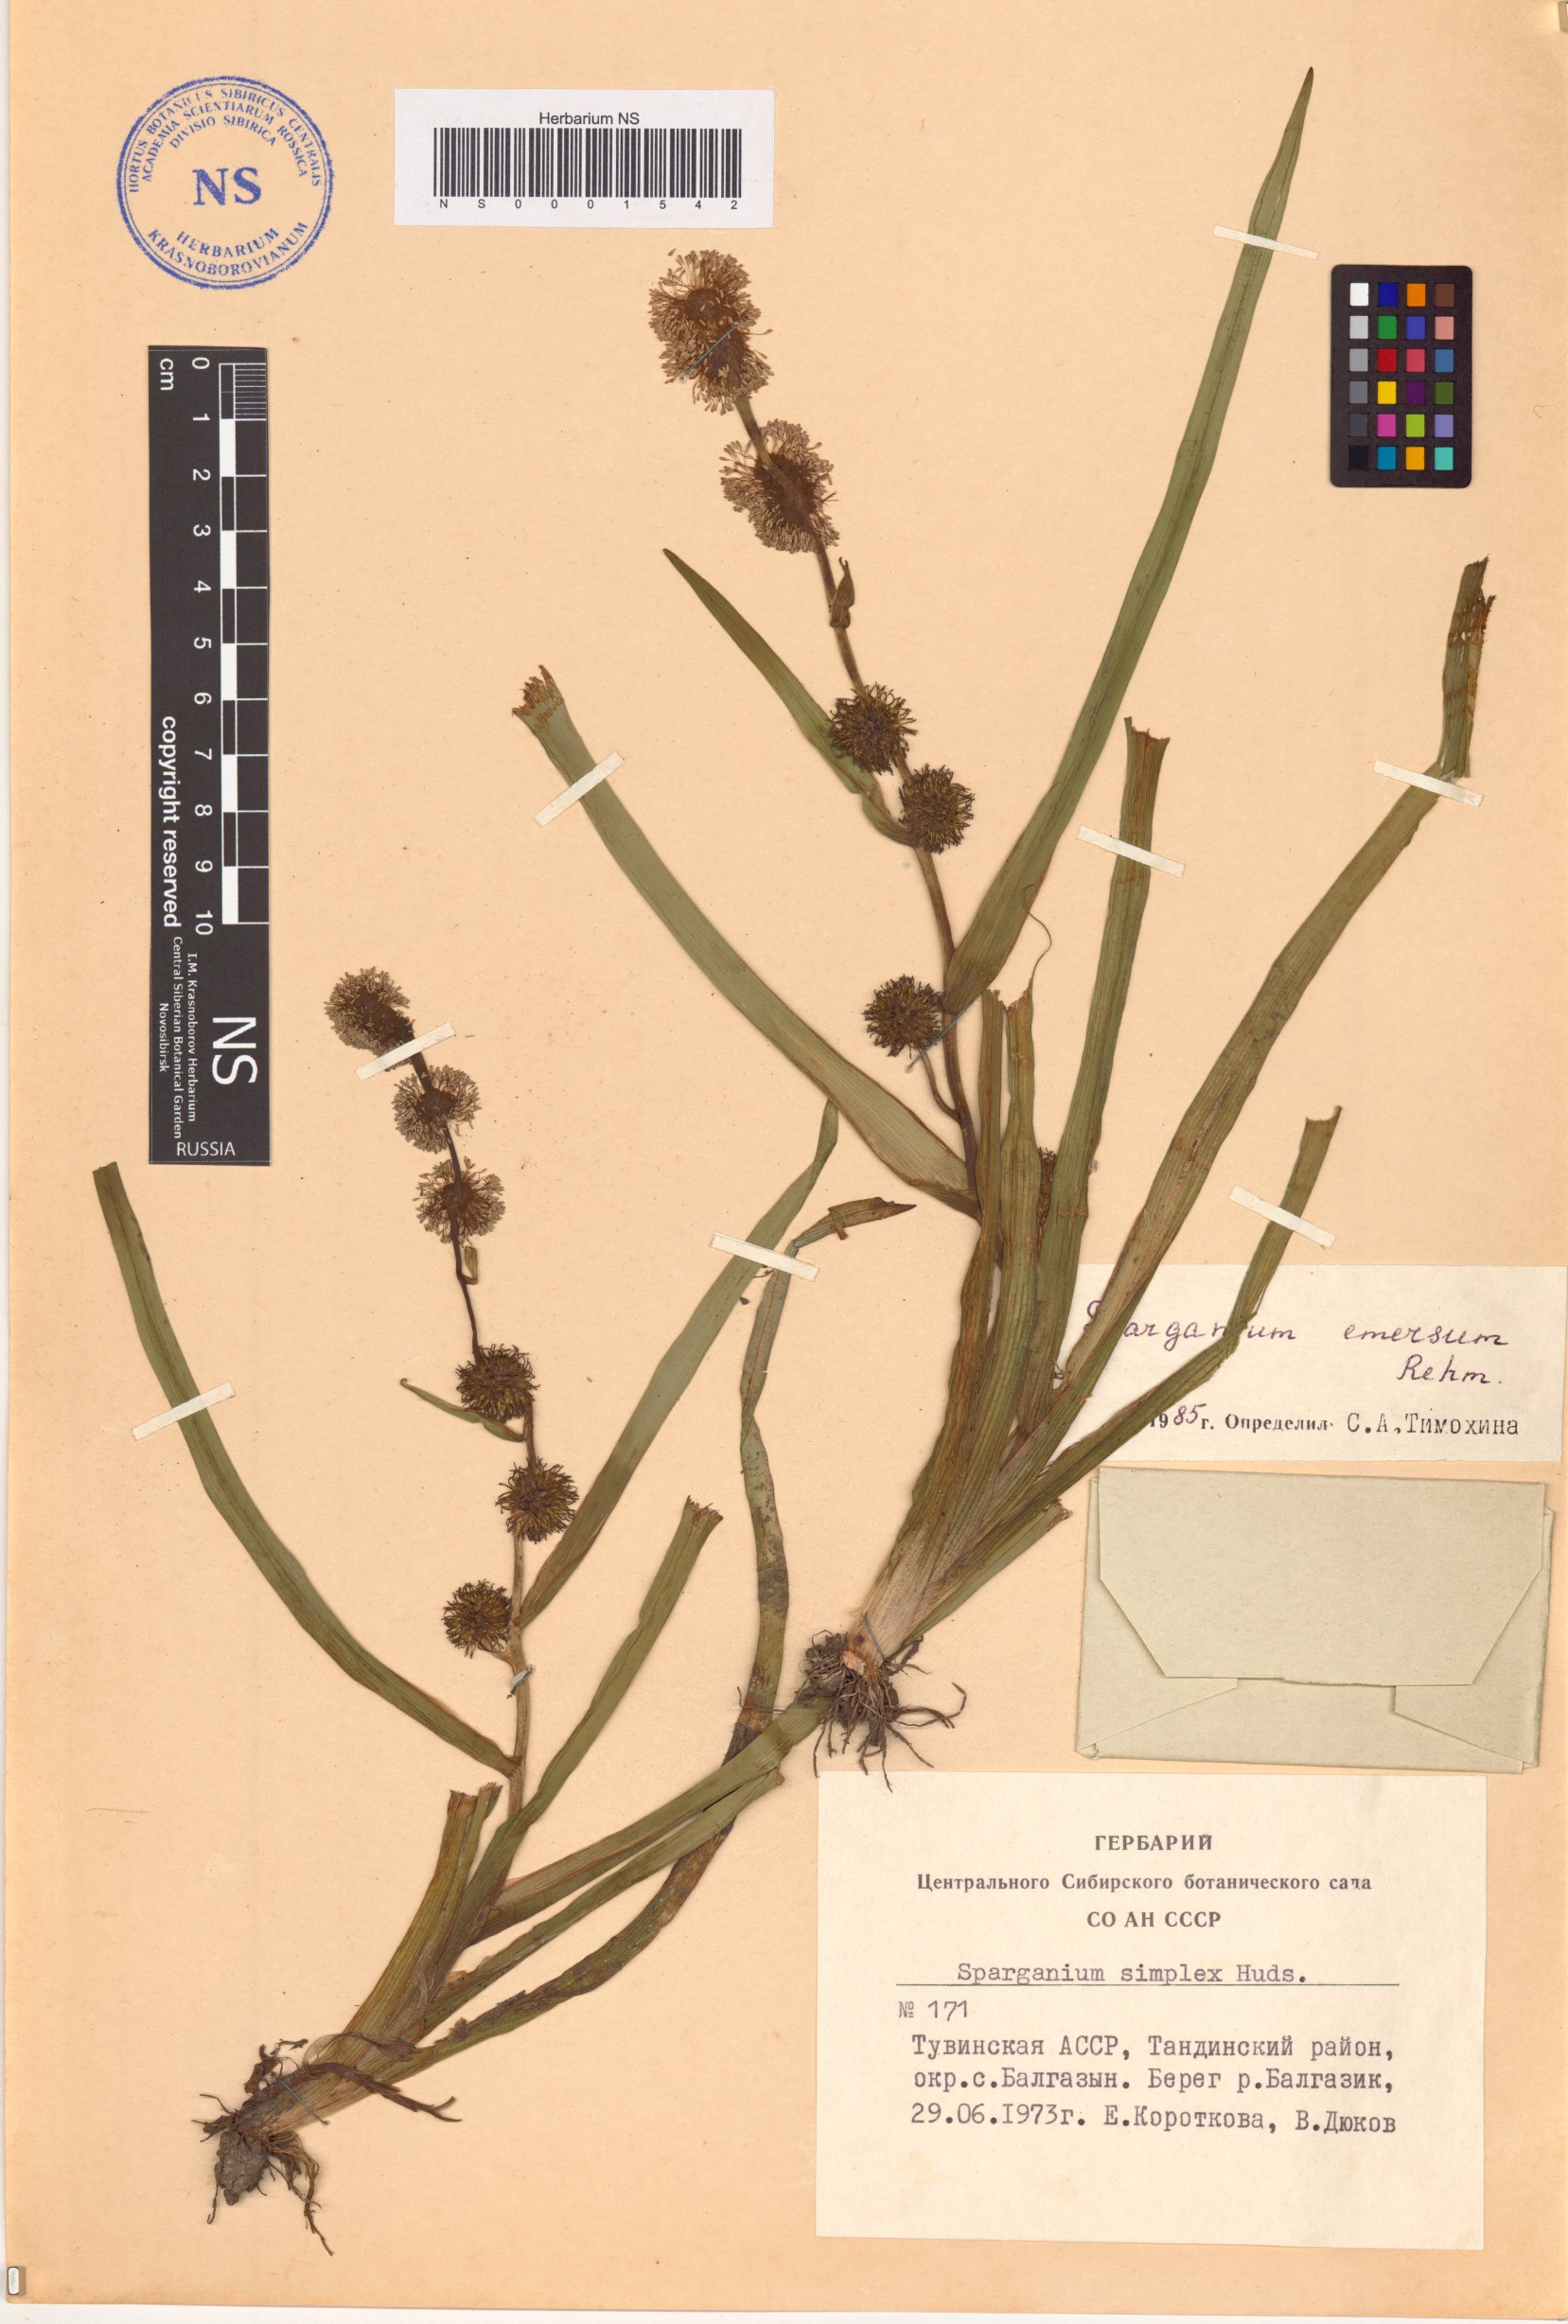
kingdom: Plantae
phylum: Tracheophyta
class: Liliopsida
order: Poales
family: Typhaceae
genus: Sparganium
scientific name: Sparganium emersum
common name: Unbranched bur-reed
